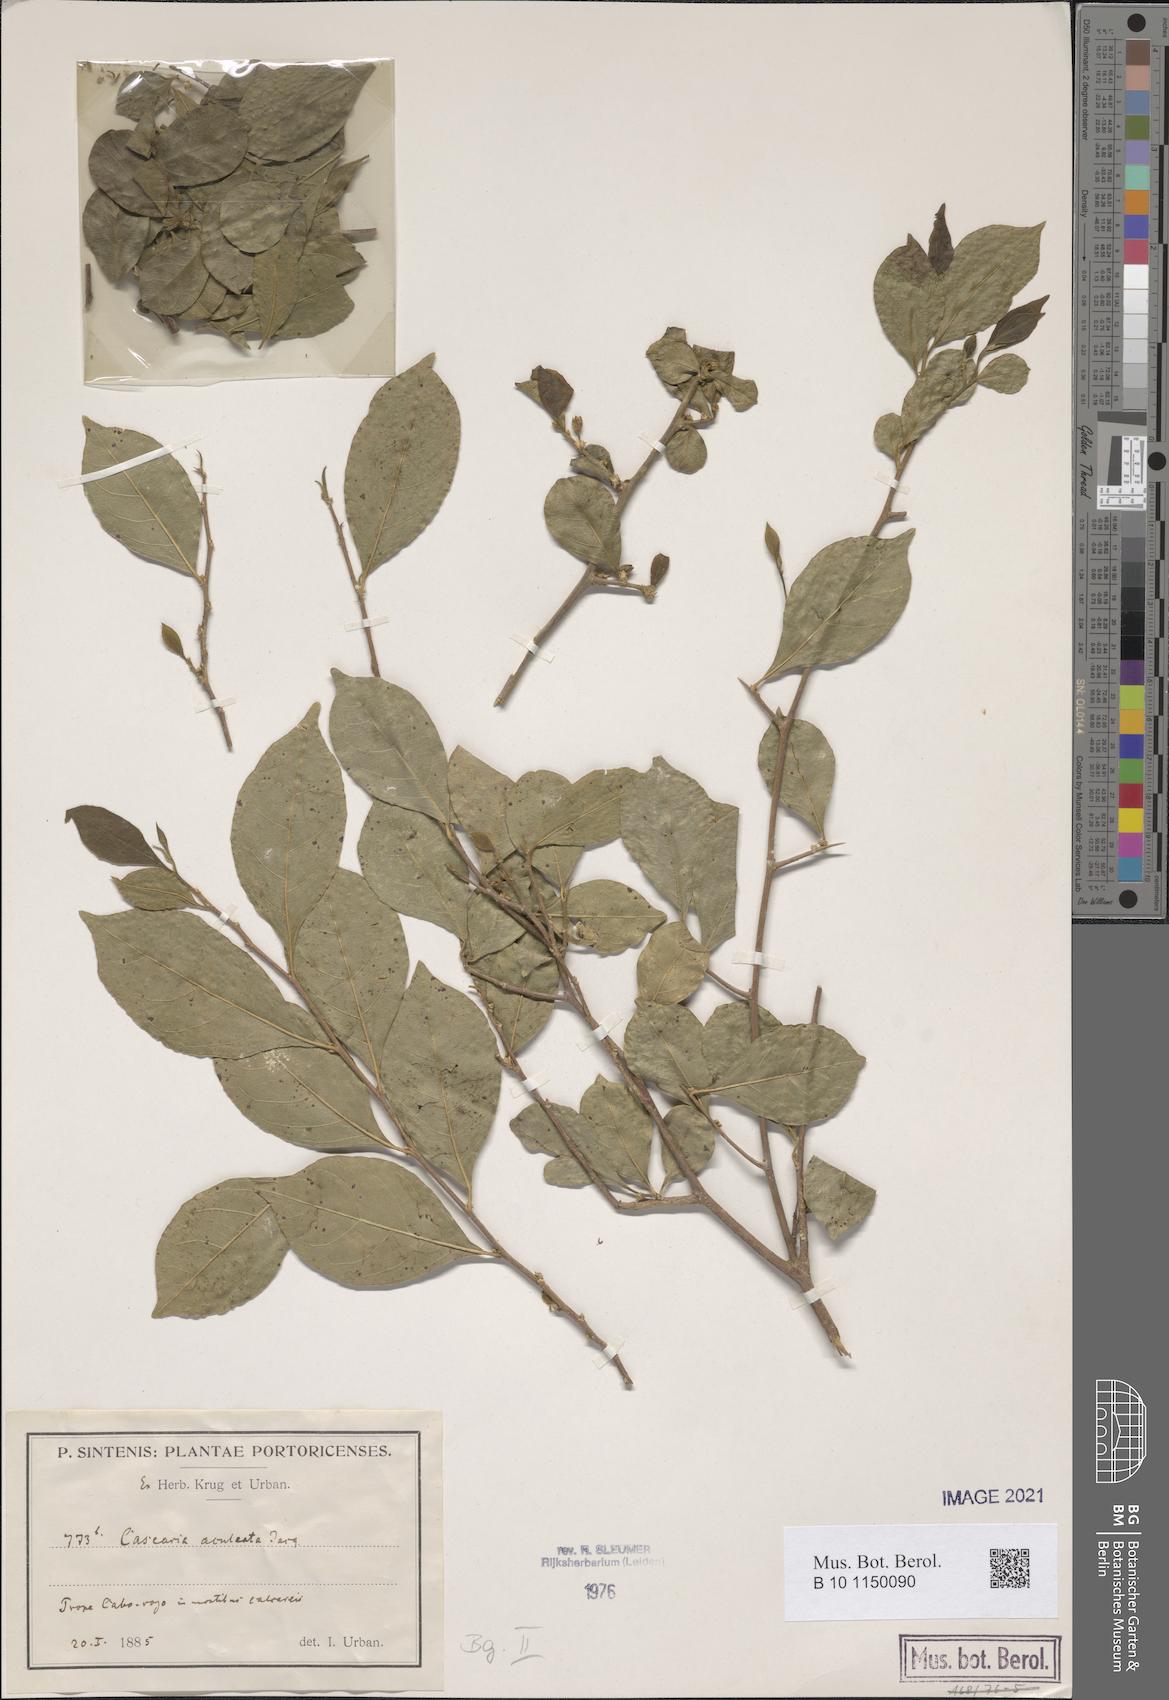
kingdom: Plantae
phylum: Tracheophyta
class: Magnoliopsida
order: Malpighiales
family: Salicaceae
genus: Casearia
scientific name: Casearia aculeata
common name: Cockspur
